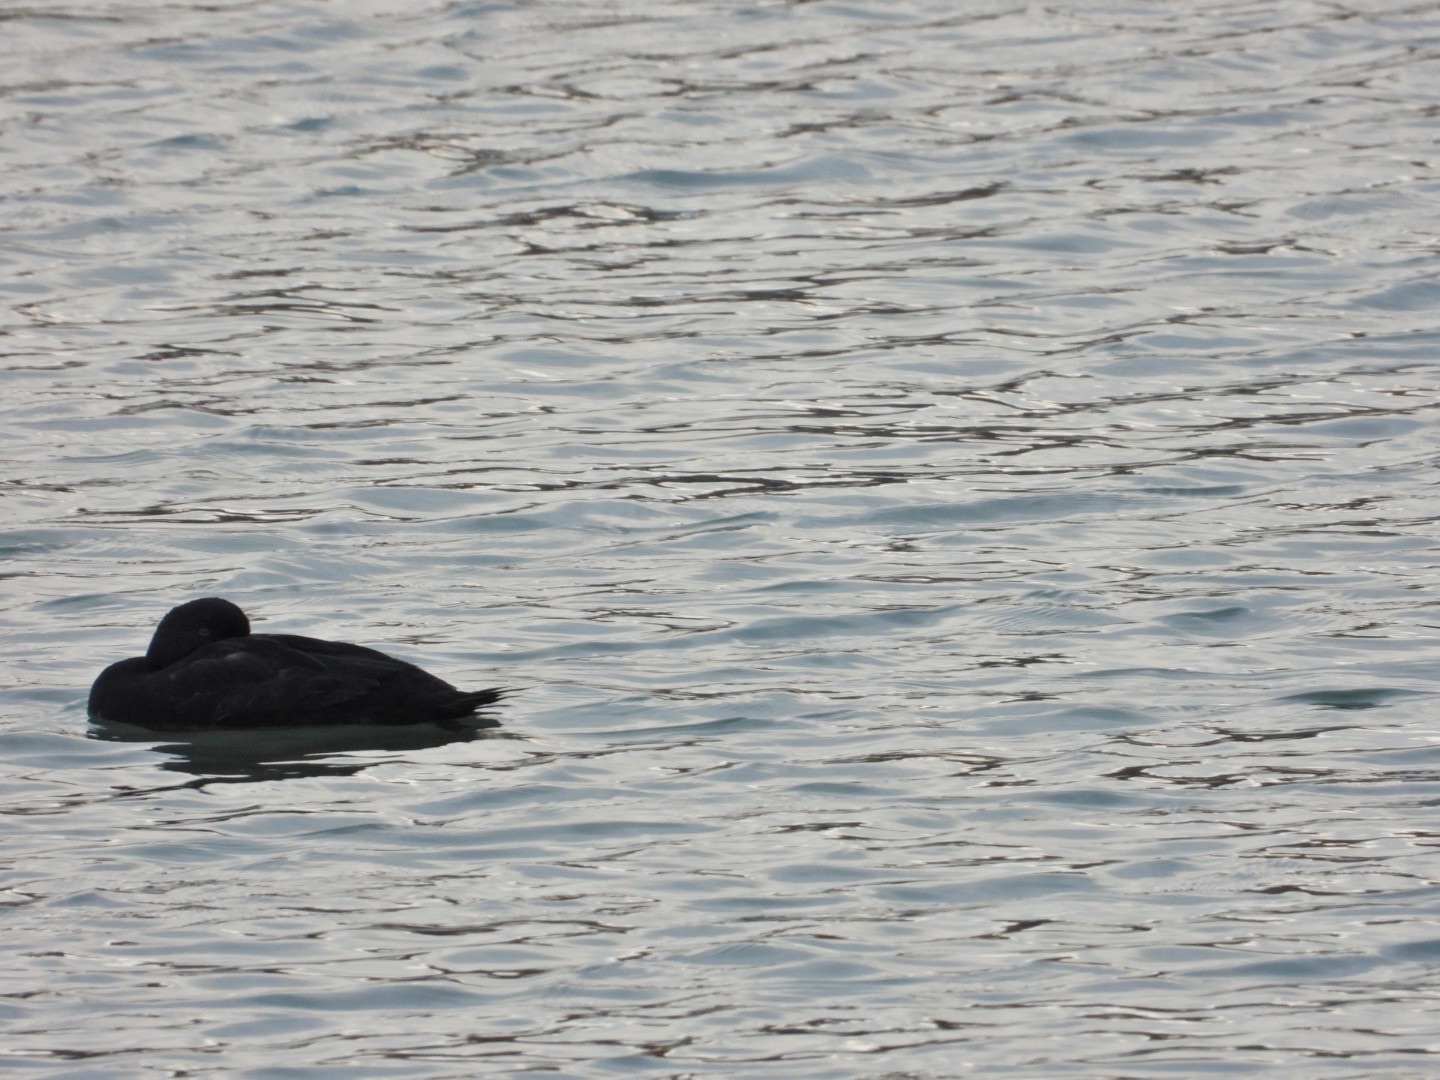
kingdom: Animalia
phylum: Chordata
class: Aves
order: Anseriformes
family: Anatidae
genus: Melanitta
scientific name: Melanitta nigra
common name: Sortand
